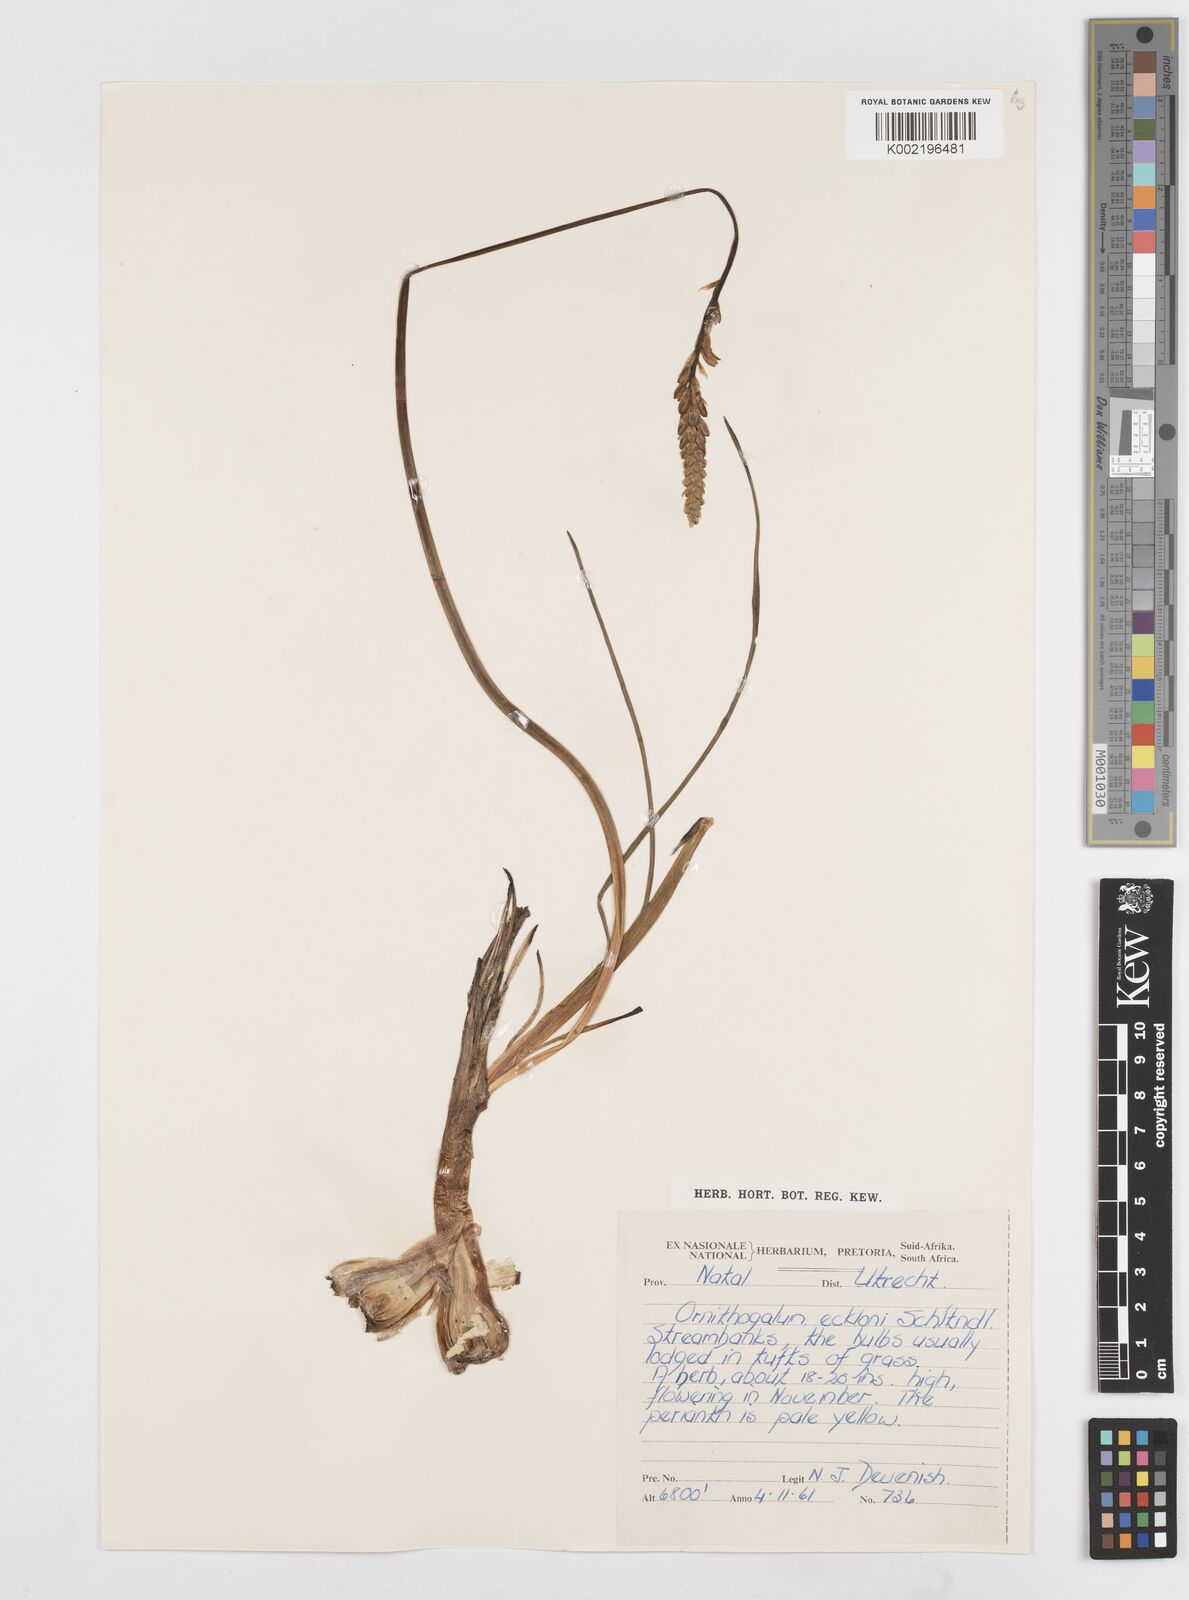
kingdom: Plantae
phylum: Tracheophyta
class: Liliopsida
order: Asparagales
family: Asparagaceae
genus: Albuca
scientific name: Albuca virens
